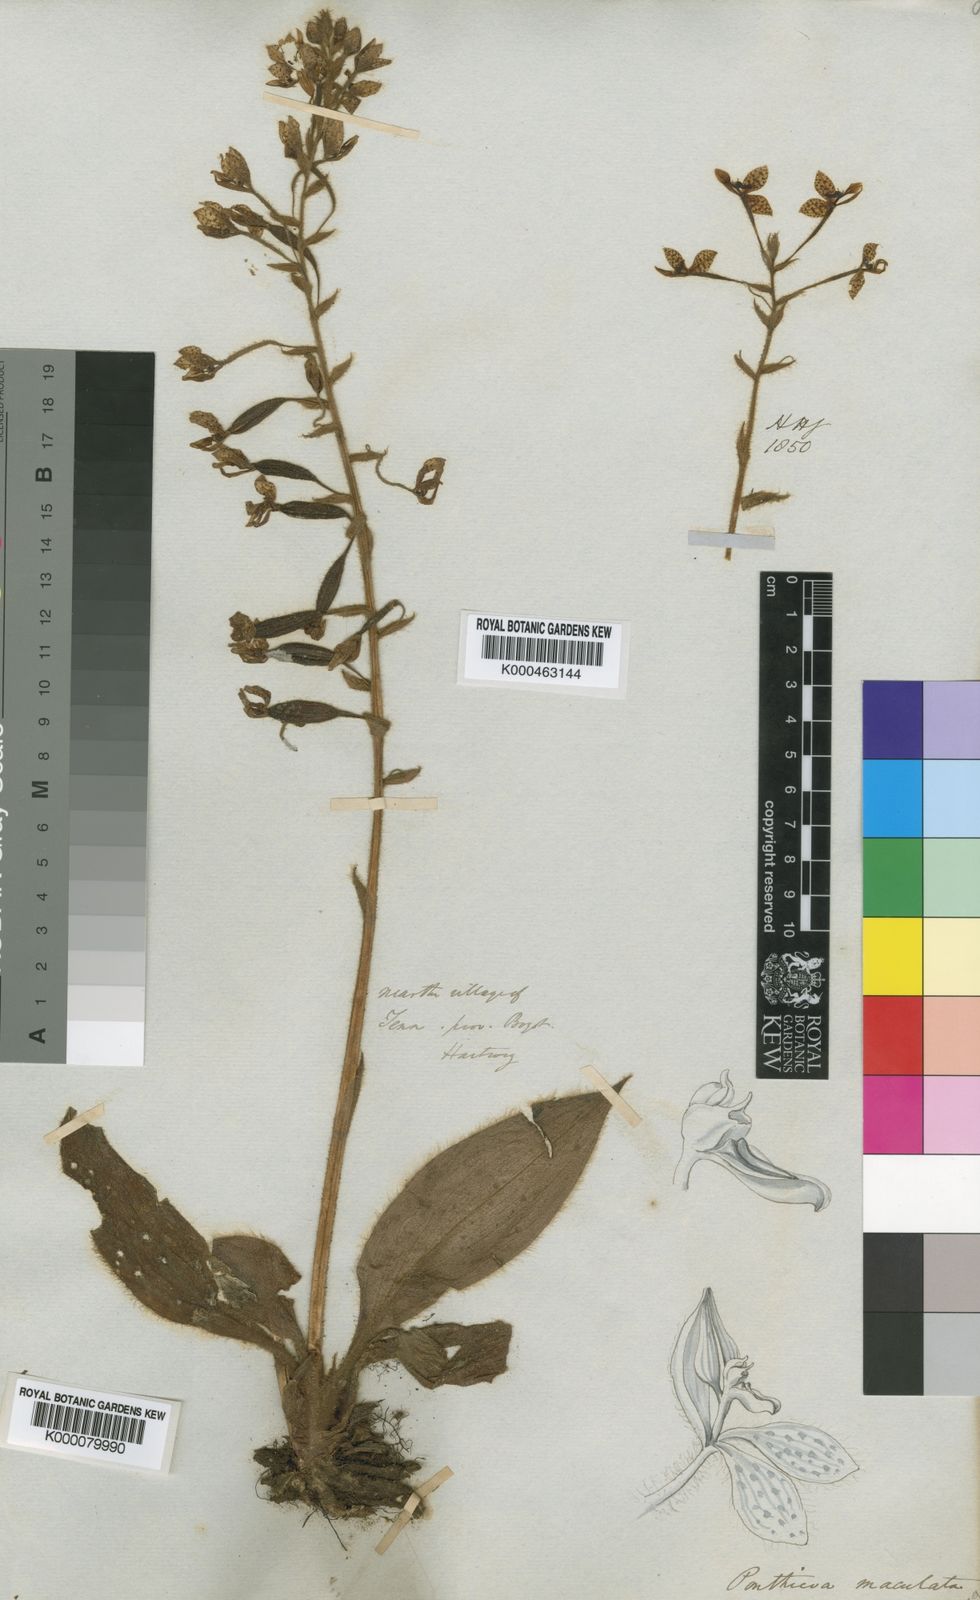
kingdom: Plantae
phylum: Tracheophyta
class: Liliopsida
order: Asparagales
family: Orchidaceae
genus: Ponthieva
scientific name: Ponthieva maculata
